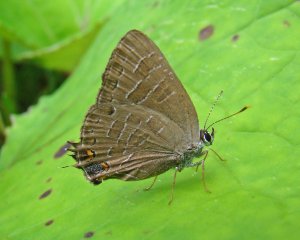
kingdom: Animalia
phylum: Arthropoda
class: Insecta
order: Lepidoptera
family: Lycaenidae
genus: Satyrium
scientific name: Satyrium liparops
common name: Striped Hairstreak
